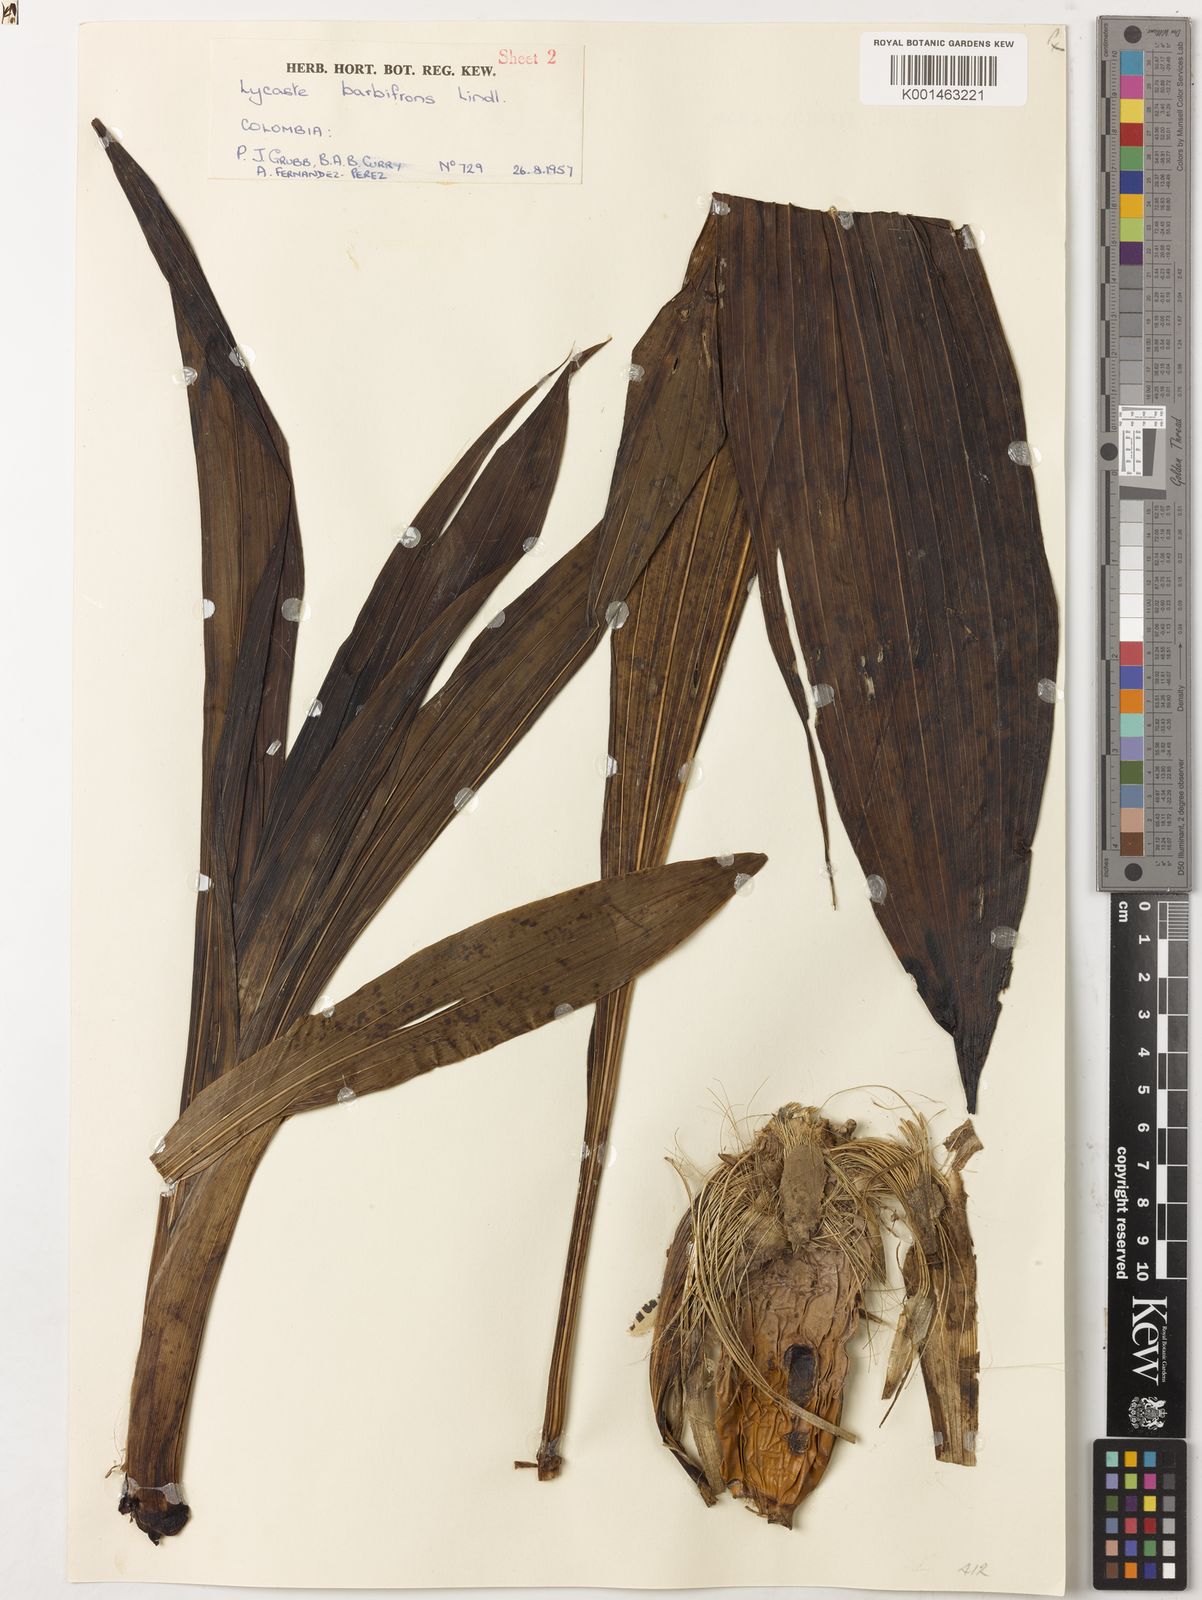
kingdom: Plantae
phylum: Tracheophyta
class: Liliopsida
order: Asparagales
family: Orchidaceae
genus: Ida
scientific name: Ida heynderycxii
